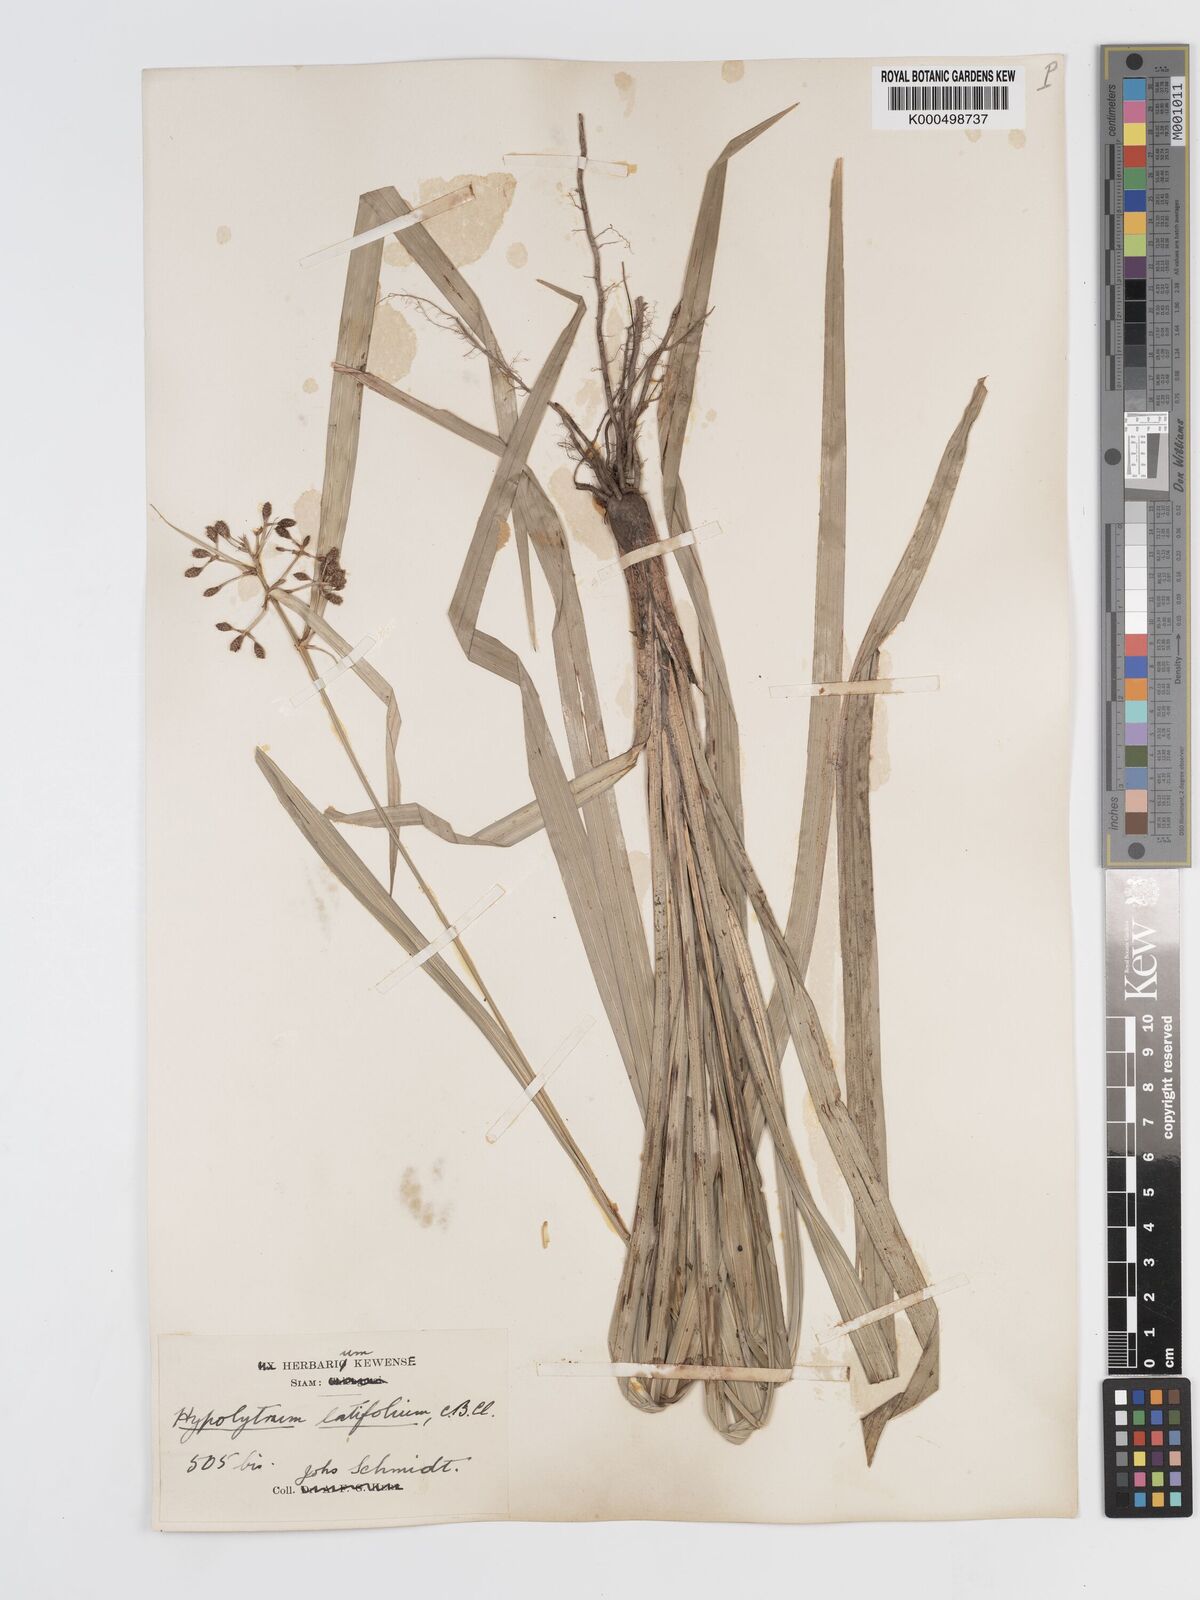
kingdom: Plantae
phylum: Tracheophyta
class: Liliopsida
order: Poales
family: Cyperaceae
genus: Hypolytrum
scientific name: Hypolytrum nemorum
